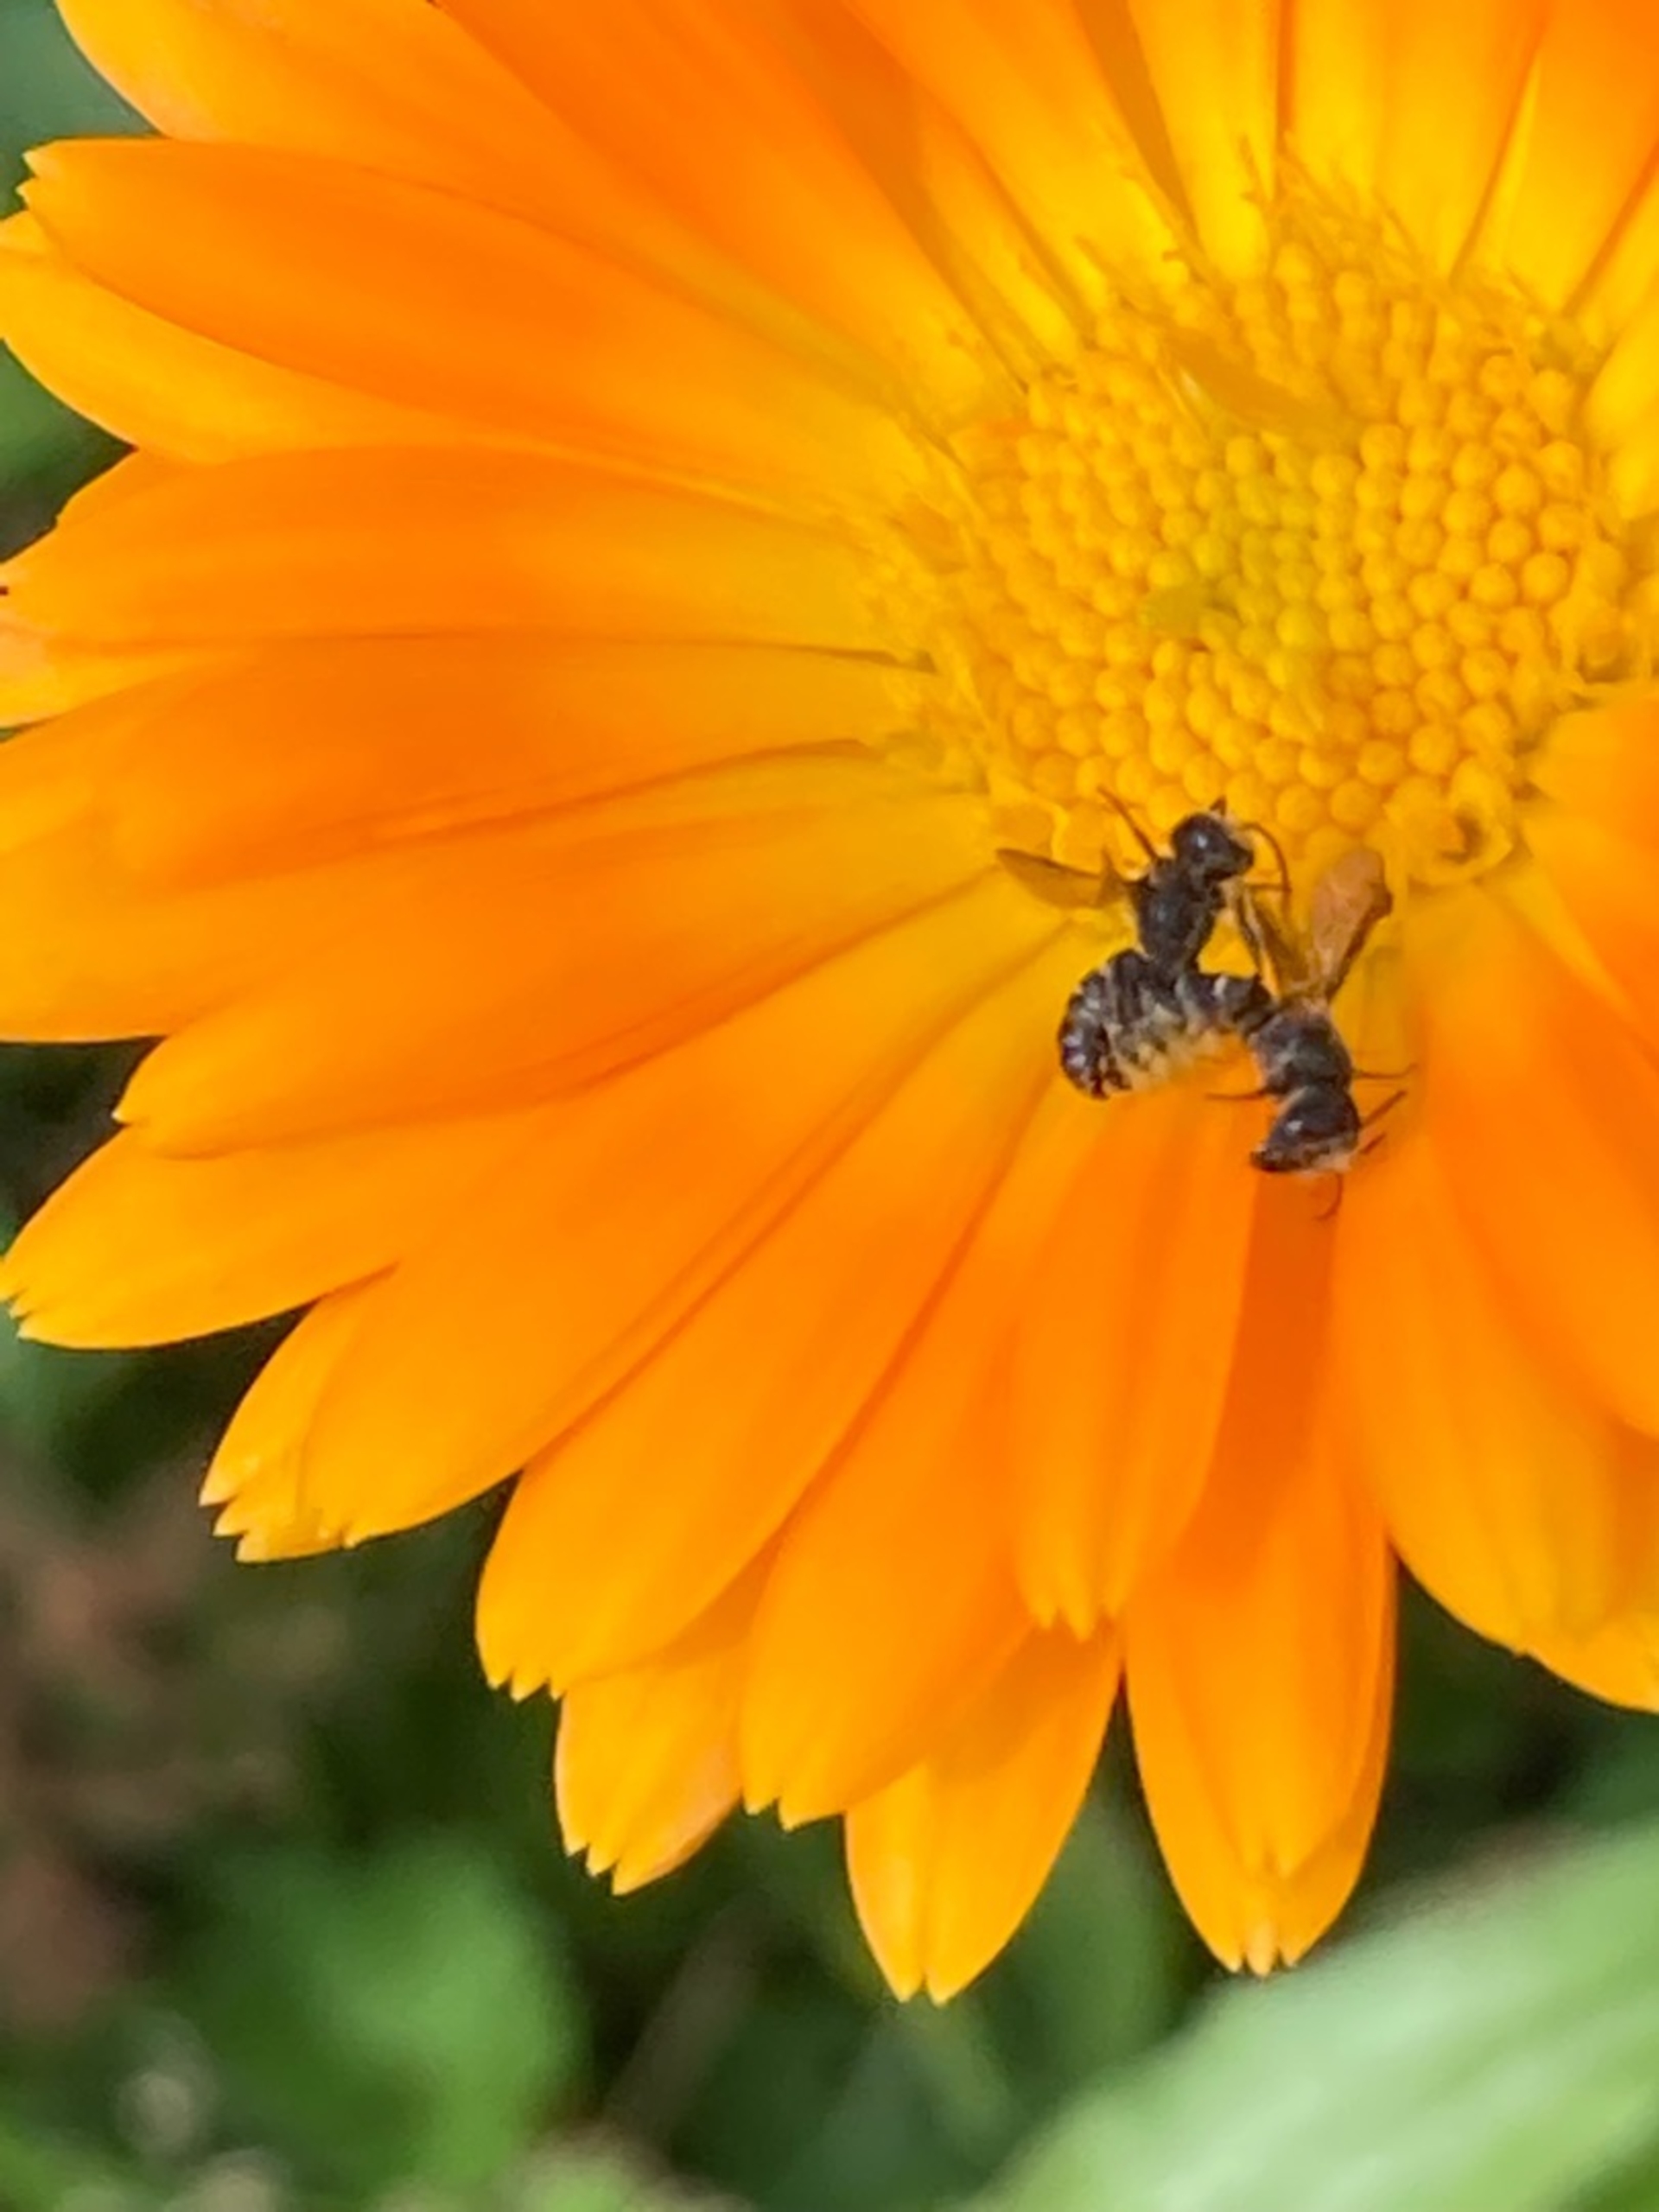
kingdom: Animalia
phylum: Arthropoda
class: Insecta
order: Hymenoptera
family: Megachilidae
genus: Chelostoma
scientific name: Chelostoma
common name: Saksebier
